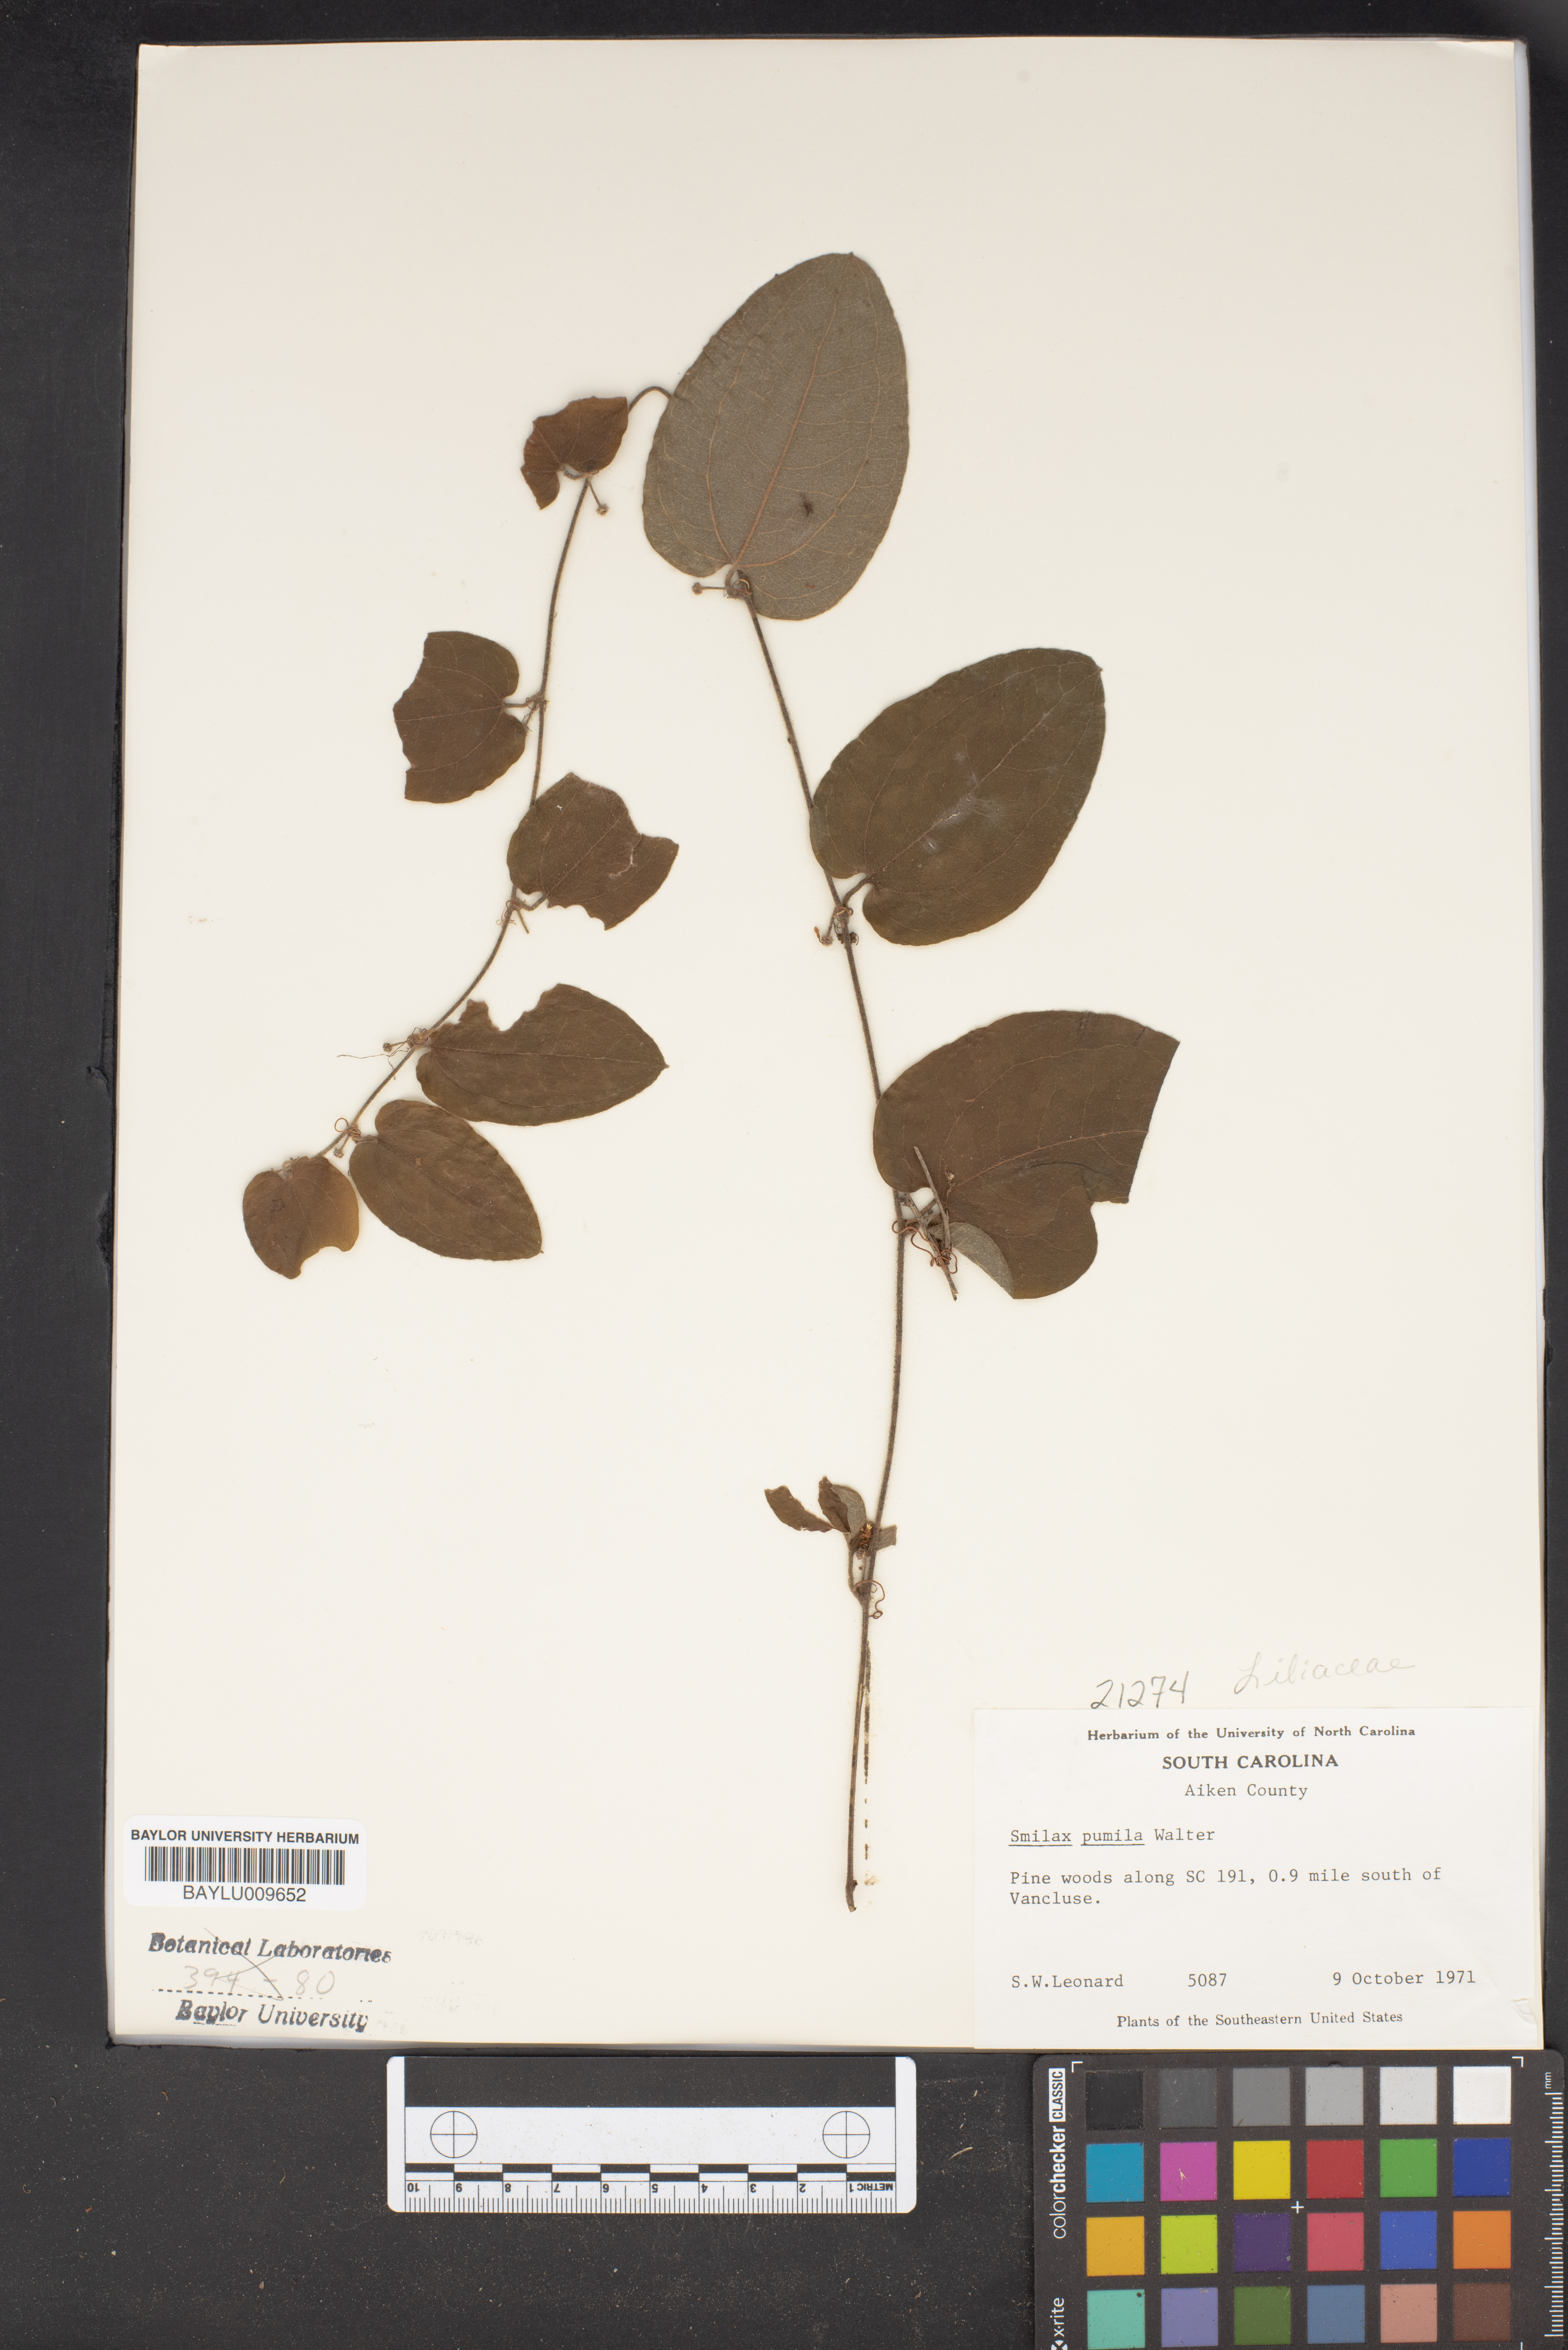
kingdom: Plantae
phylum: Tracheophyta
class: Liliopsida
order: Liliales
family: Smilacaceae
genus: Smilax
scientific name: Smilax pumila
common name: Sarsaparilla-vine
